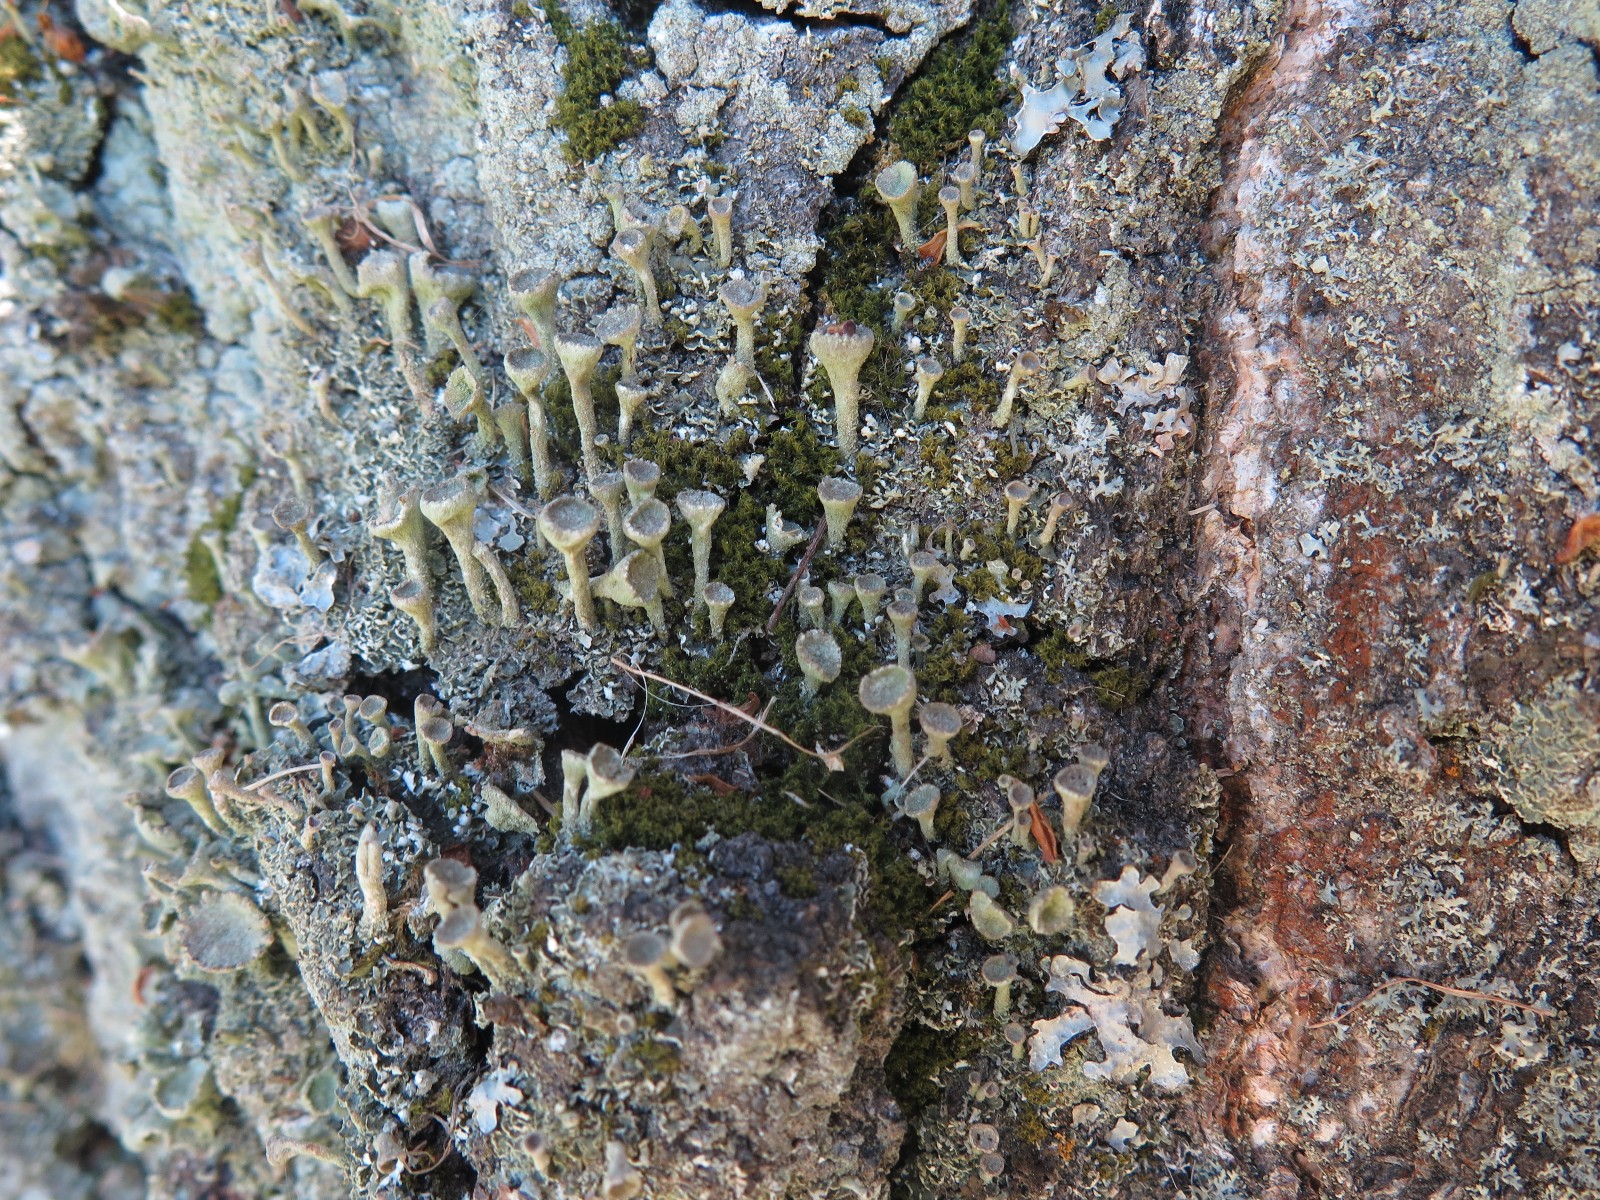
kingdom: Fungi
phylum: Ascomycota
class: Lecanoromycetes
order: Lecanorales
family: Cladoniaceae
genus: Cladonia
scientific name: Cladonia
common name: brungrøn bægerlav
